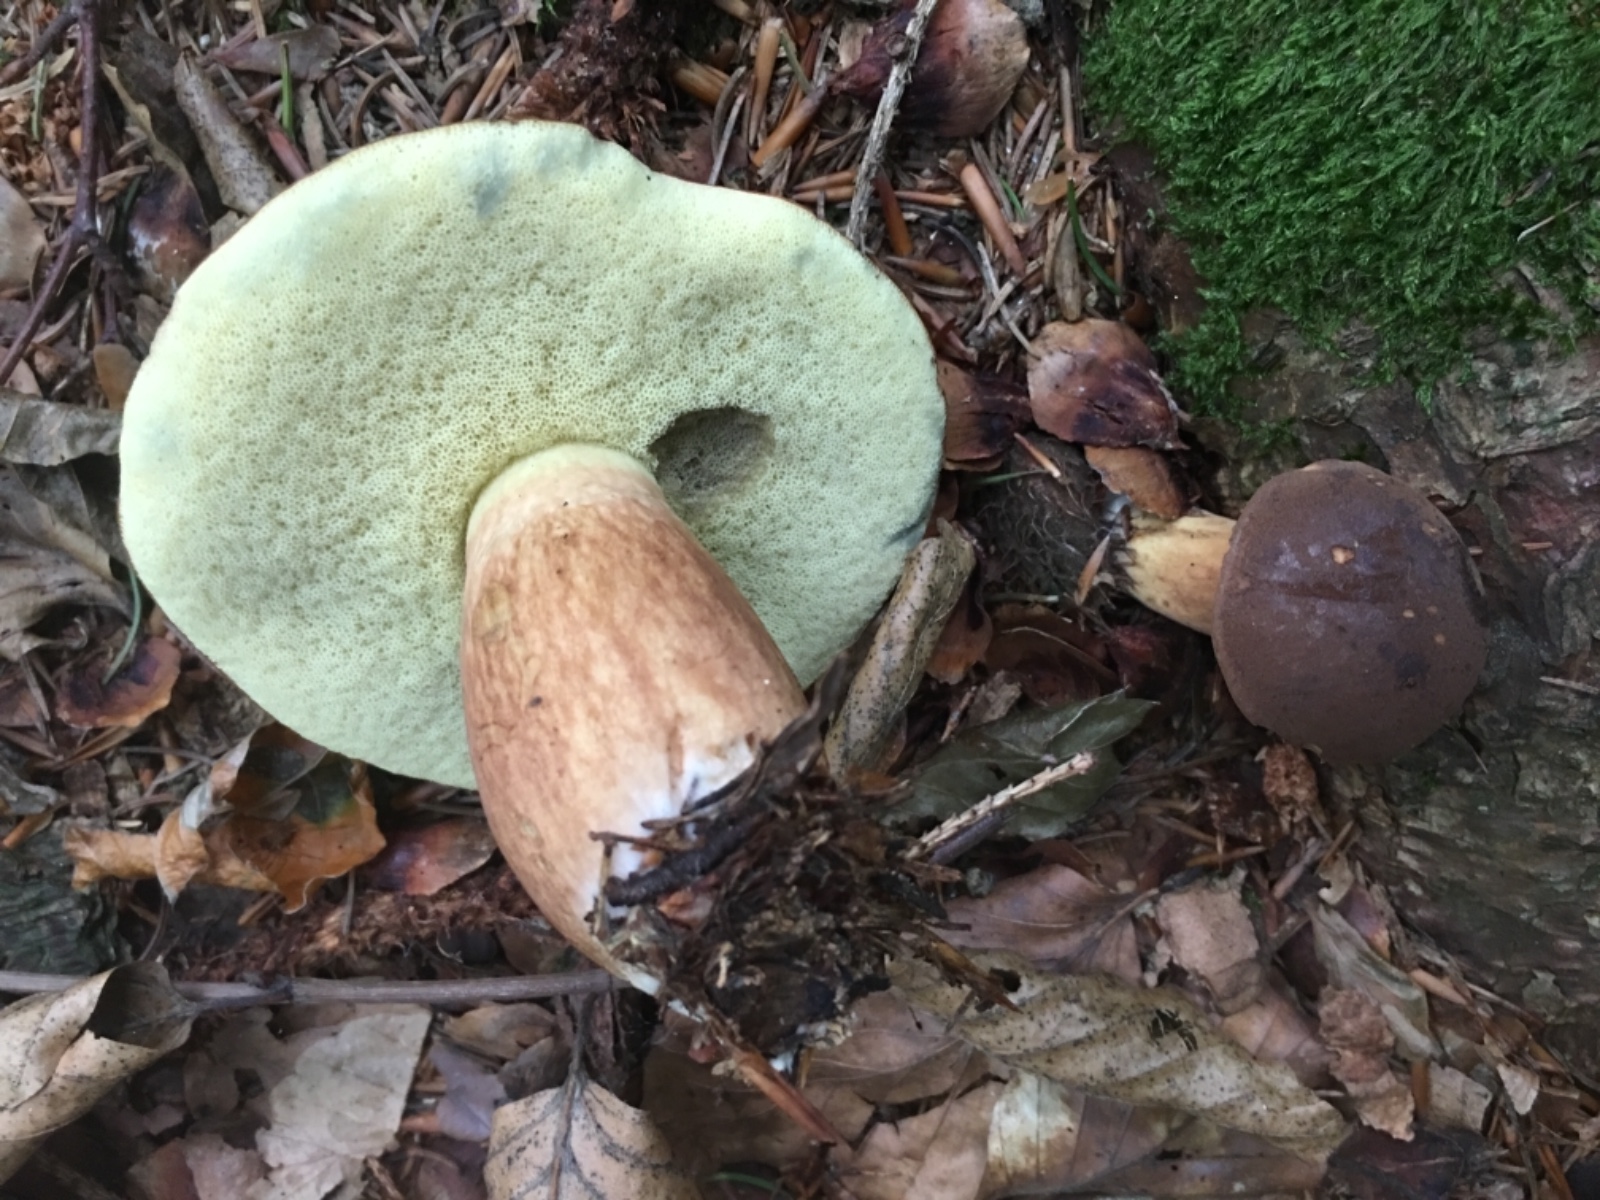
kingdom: Fungi
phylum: Basidiomycota
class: Agaricomycetes
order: Boletales
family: Boletaceae
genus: Imleria
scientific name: Imleria badia
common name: brunstokket rørhat
